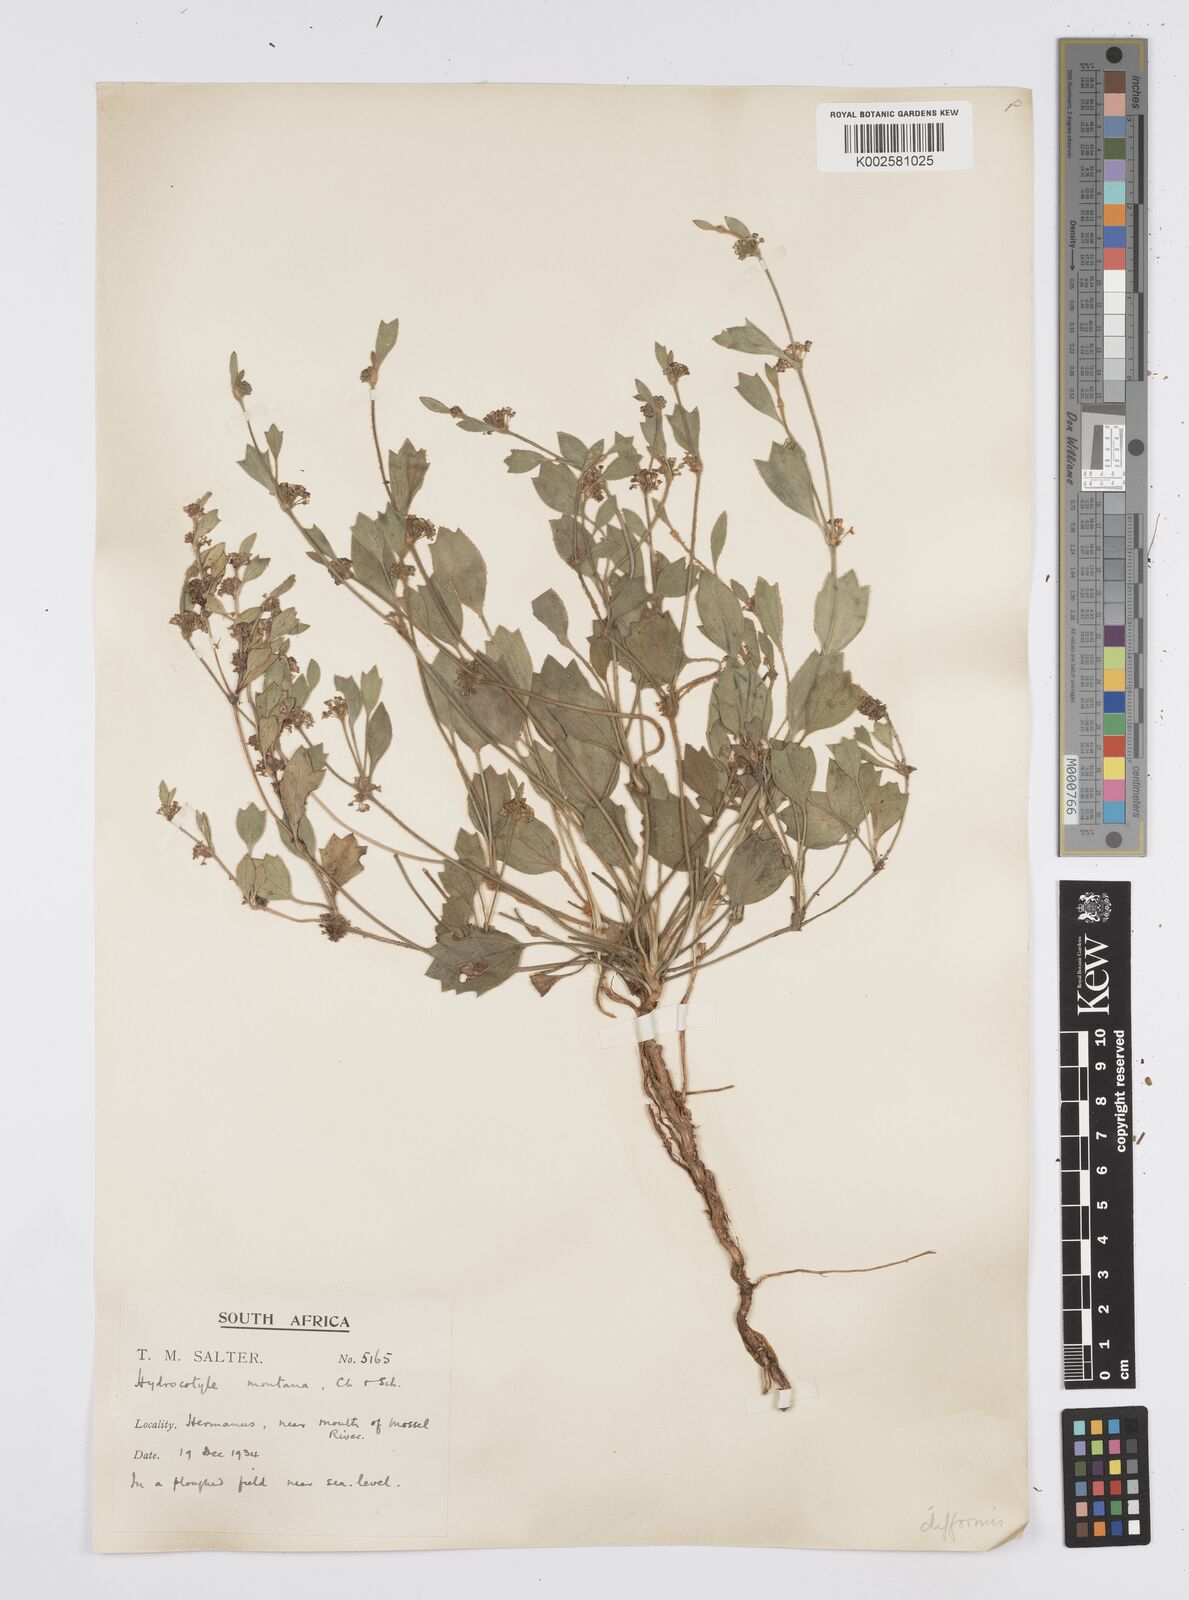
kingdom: Plantae
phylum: Tracheophyta
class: Magnoliopsida
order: Apiales
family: Apiaceae
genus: Centella
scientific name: Centella difformis
